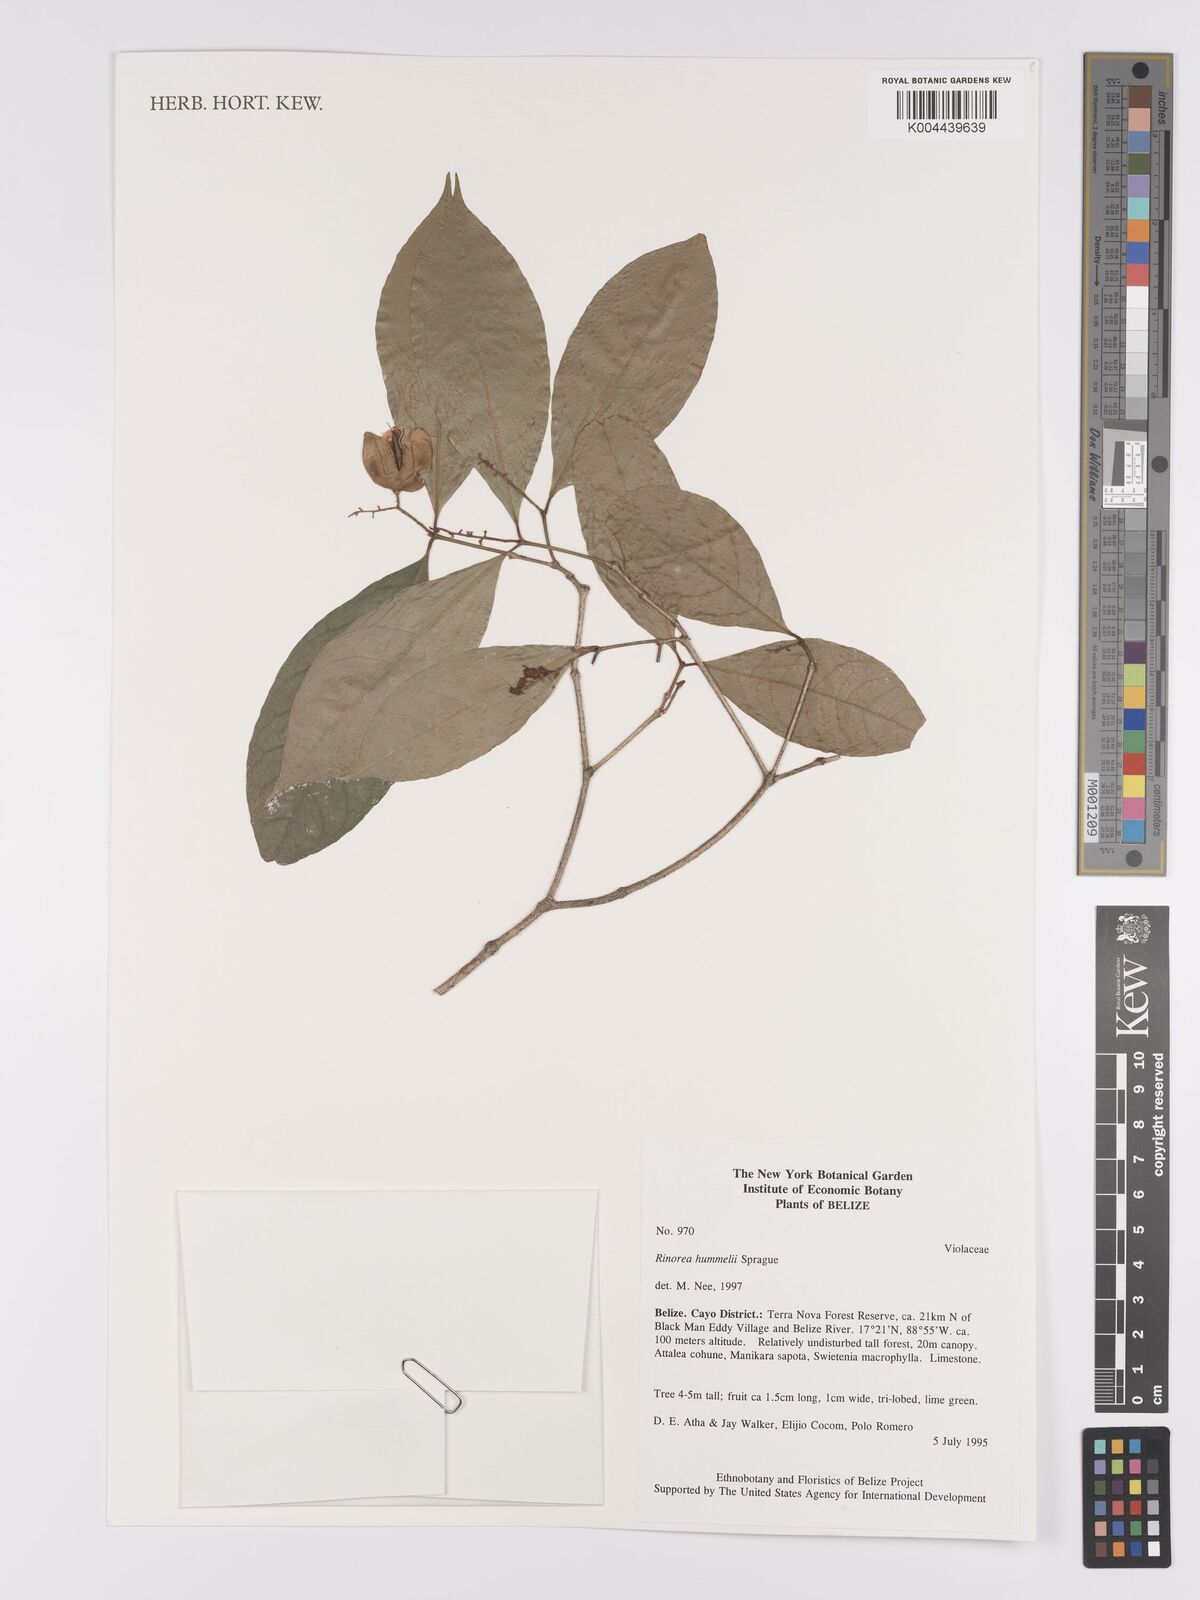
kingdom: Plantae
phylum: Tracheophyta
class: Magnoliopsida
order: Malpighiales
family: Violaceae
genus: Rinorea
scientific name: Rinorea hummelii
